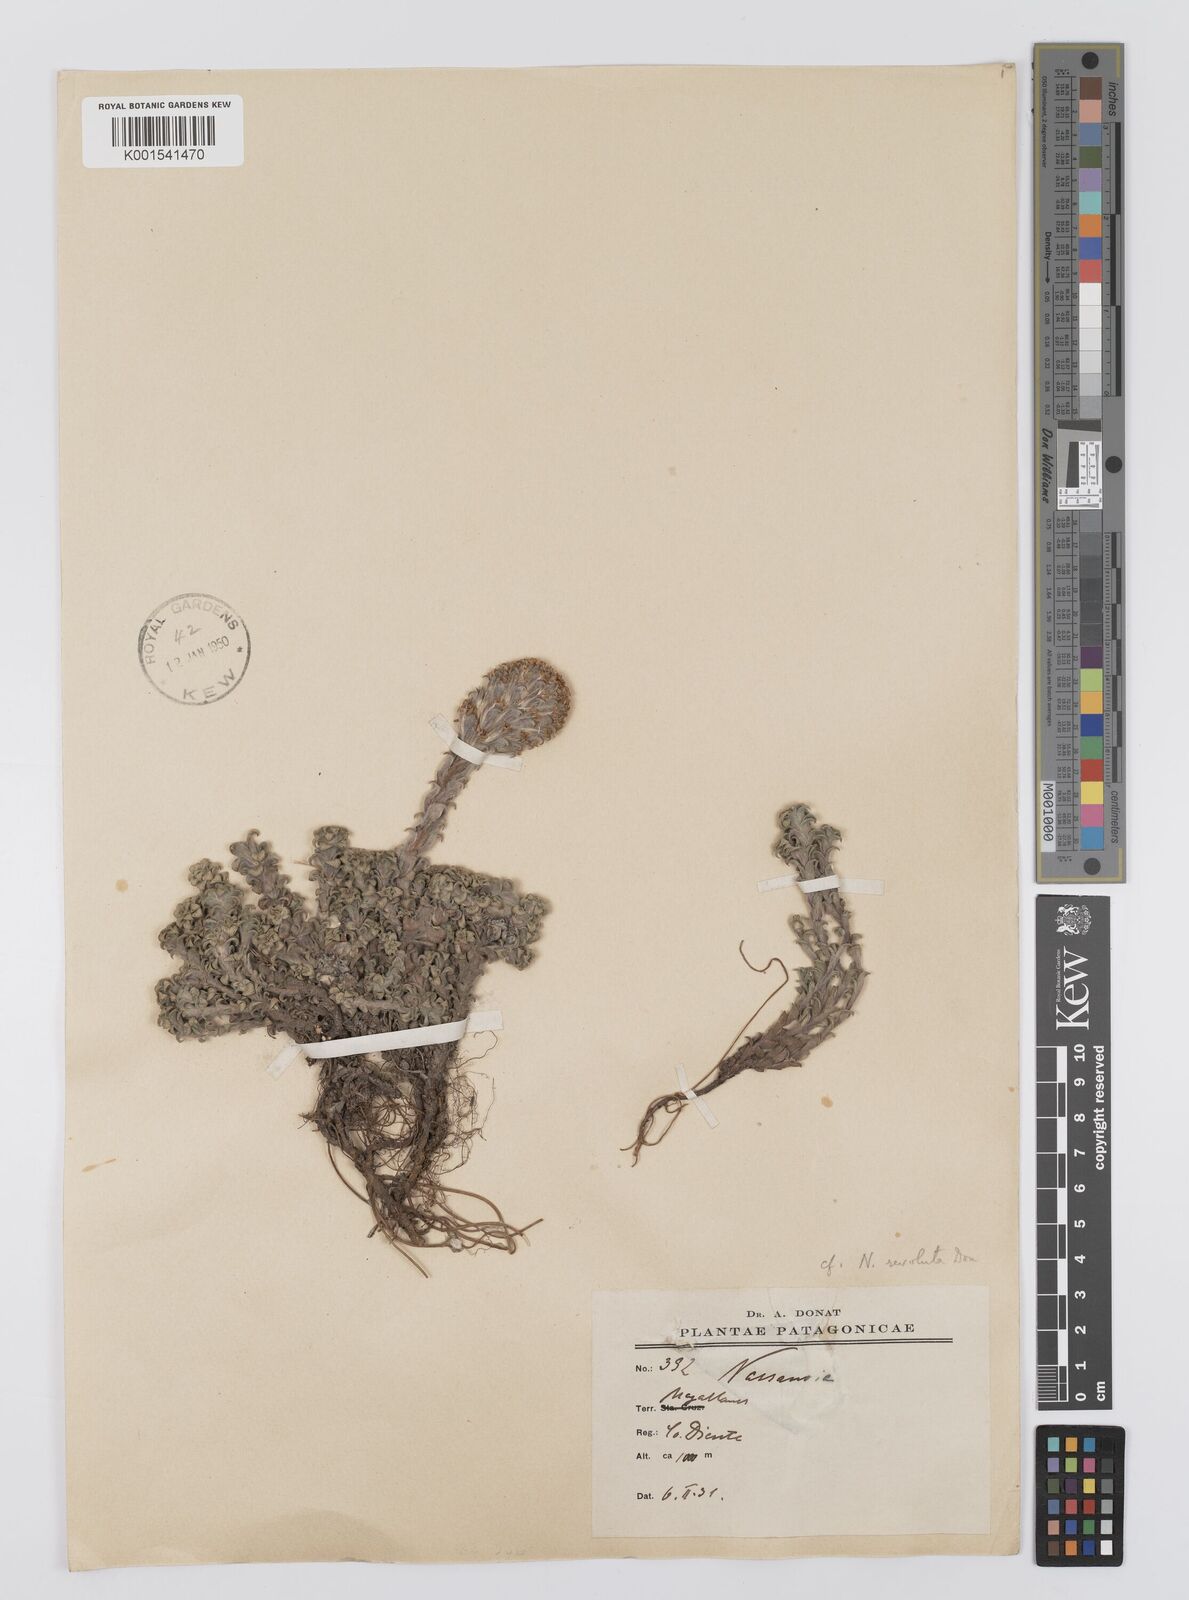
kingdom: Plantae
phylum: Tracheophyta
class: Magnoliopsida
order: Asterales
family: Asteraceae
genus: Nassauvia
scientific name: Nassauvia
